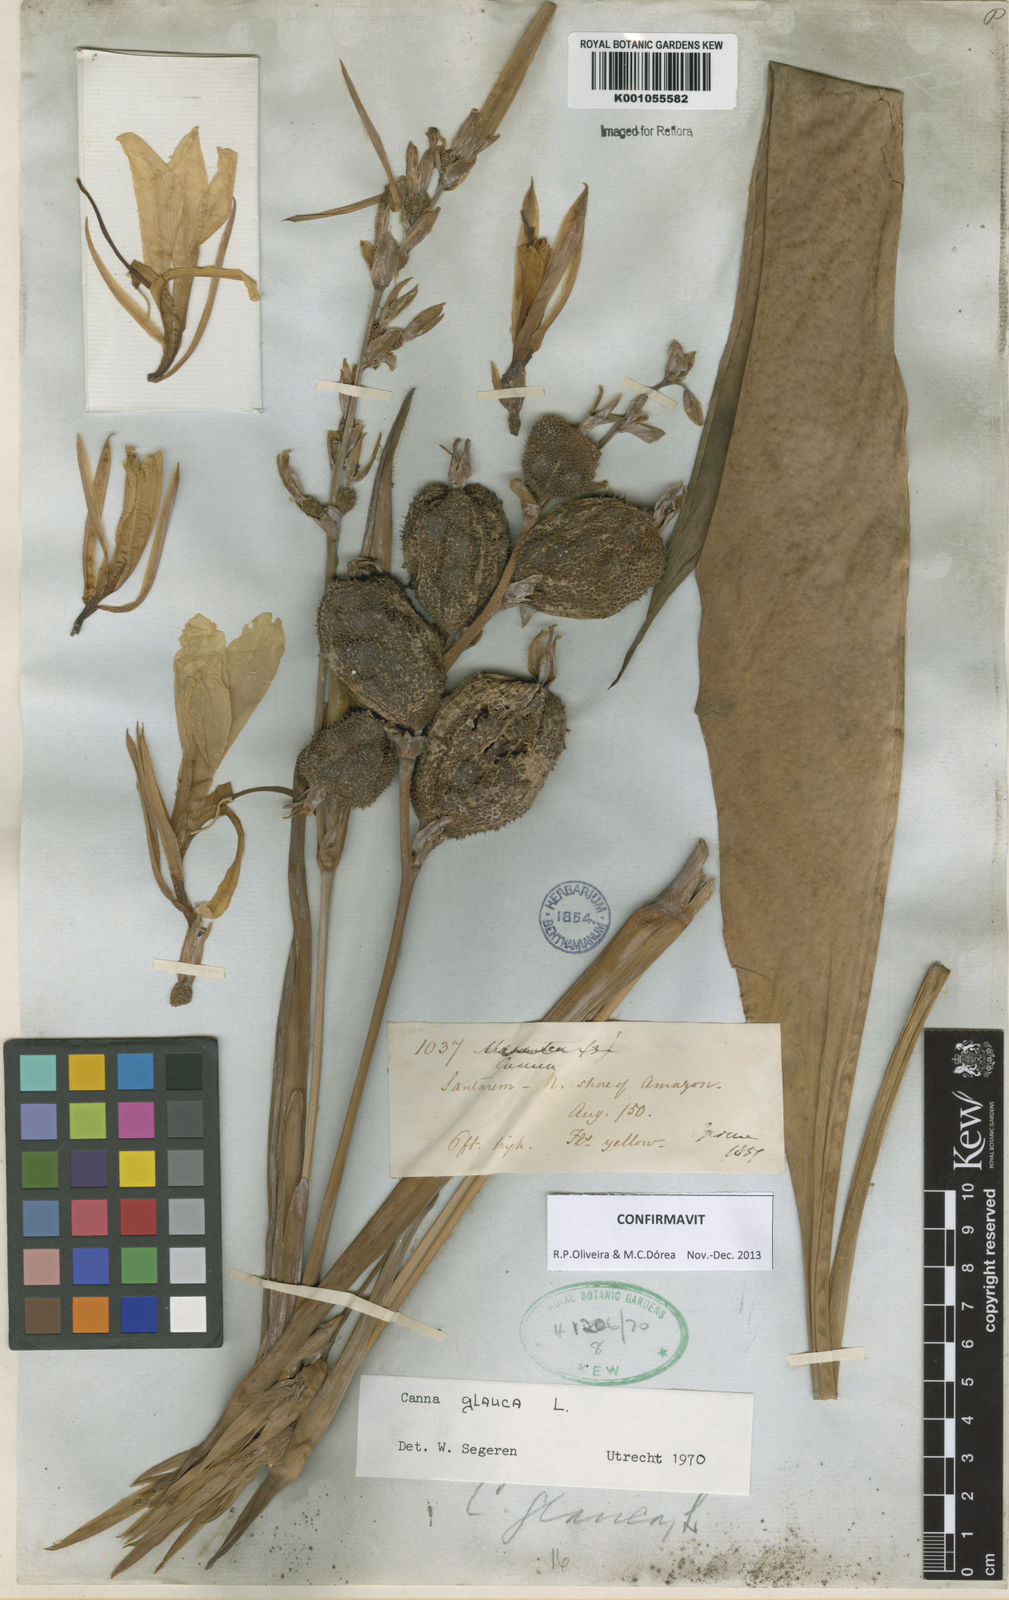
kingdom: Plantae
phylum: Tracheophyta
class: Liliopsida
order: Zingiberales
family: Cannaceae
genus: Canna
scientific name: Canna glauca
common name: Louisiana canna
